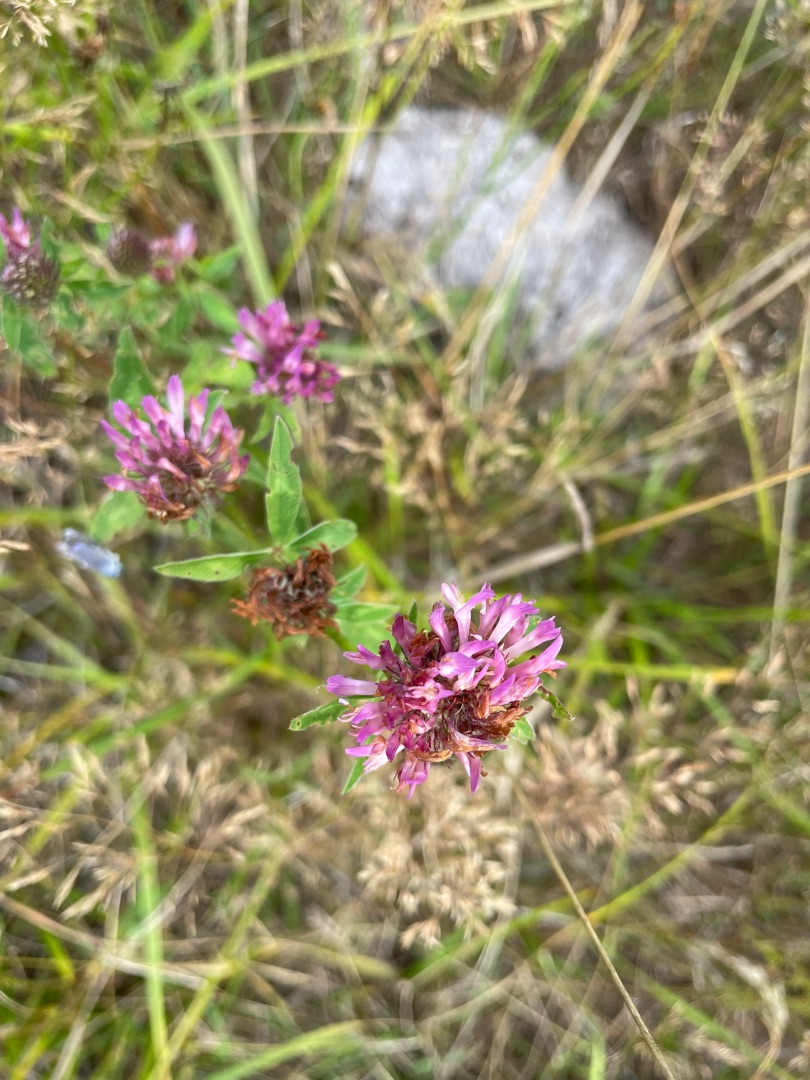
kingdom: Plantae
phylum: Tracheophyta
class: Magnoliopsida
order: Fabales
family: Fabaceae
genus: Trifolium
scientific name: Trifolium pratense
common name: Rød-kløver
